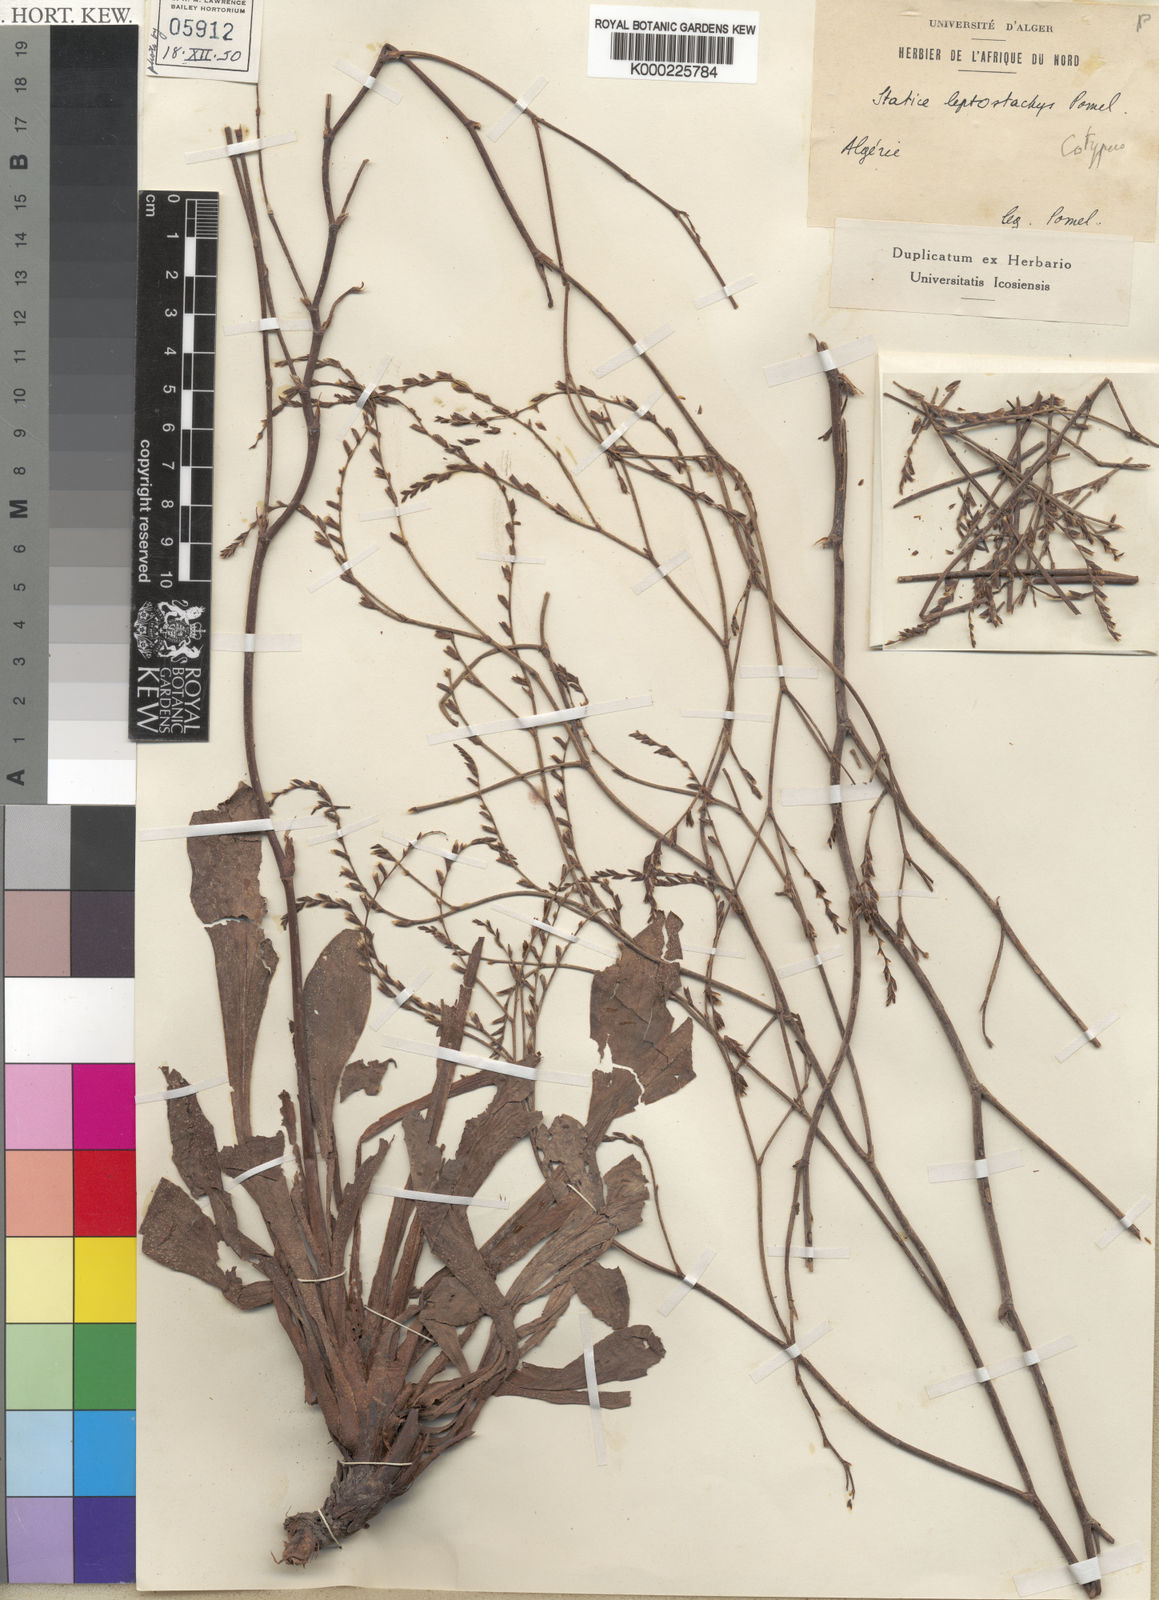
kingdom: Plantae
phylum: Tracheophyta
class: Magnoliopsida
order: Caryophyllales
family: Plumbaginaceae
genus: Limonium
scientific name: Limonium
